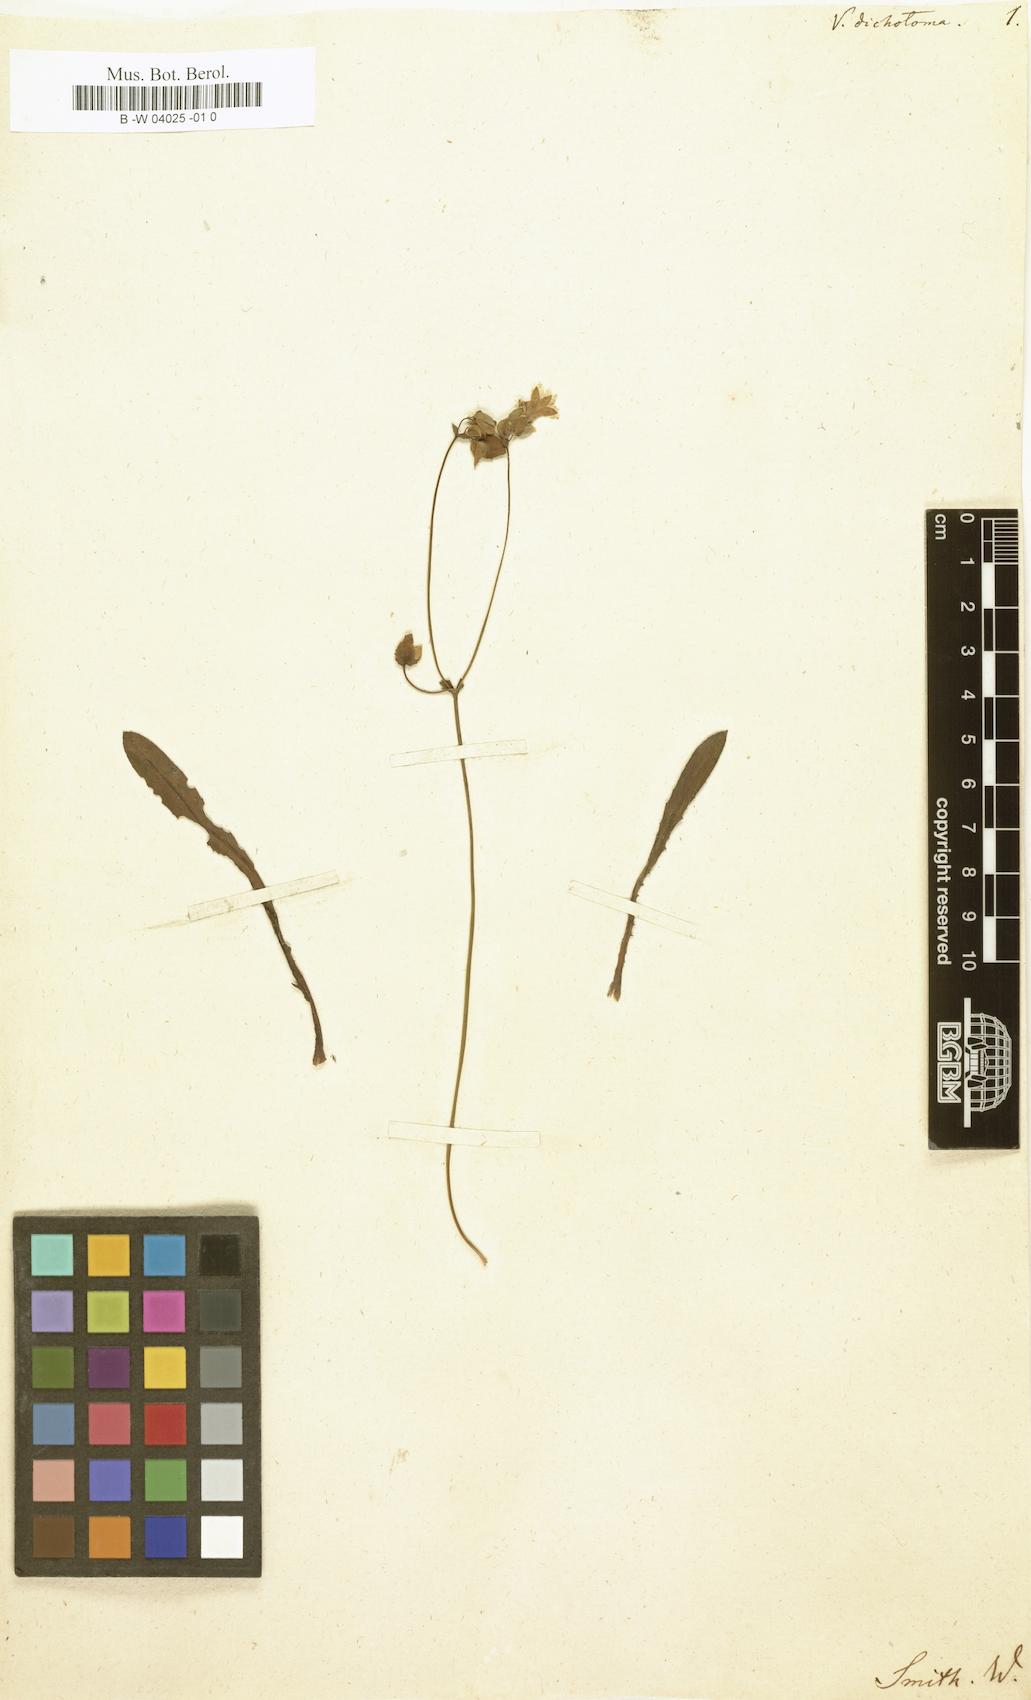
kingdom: Plantae
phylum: Tracheophyta
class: Magnoliopsida
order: Asterales
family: Goodeniaceae
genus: Goodenia
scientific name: Goodenia caroliniana
